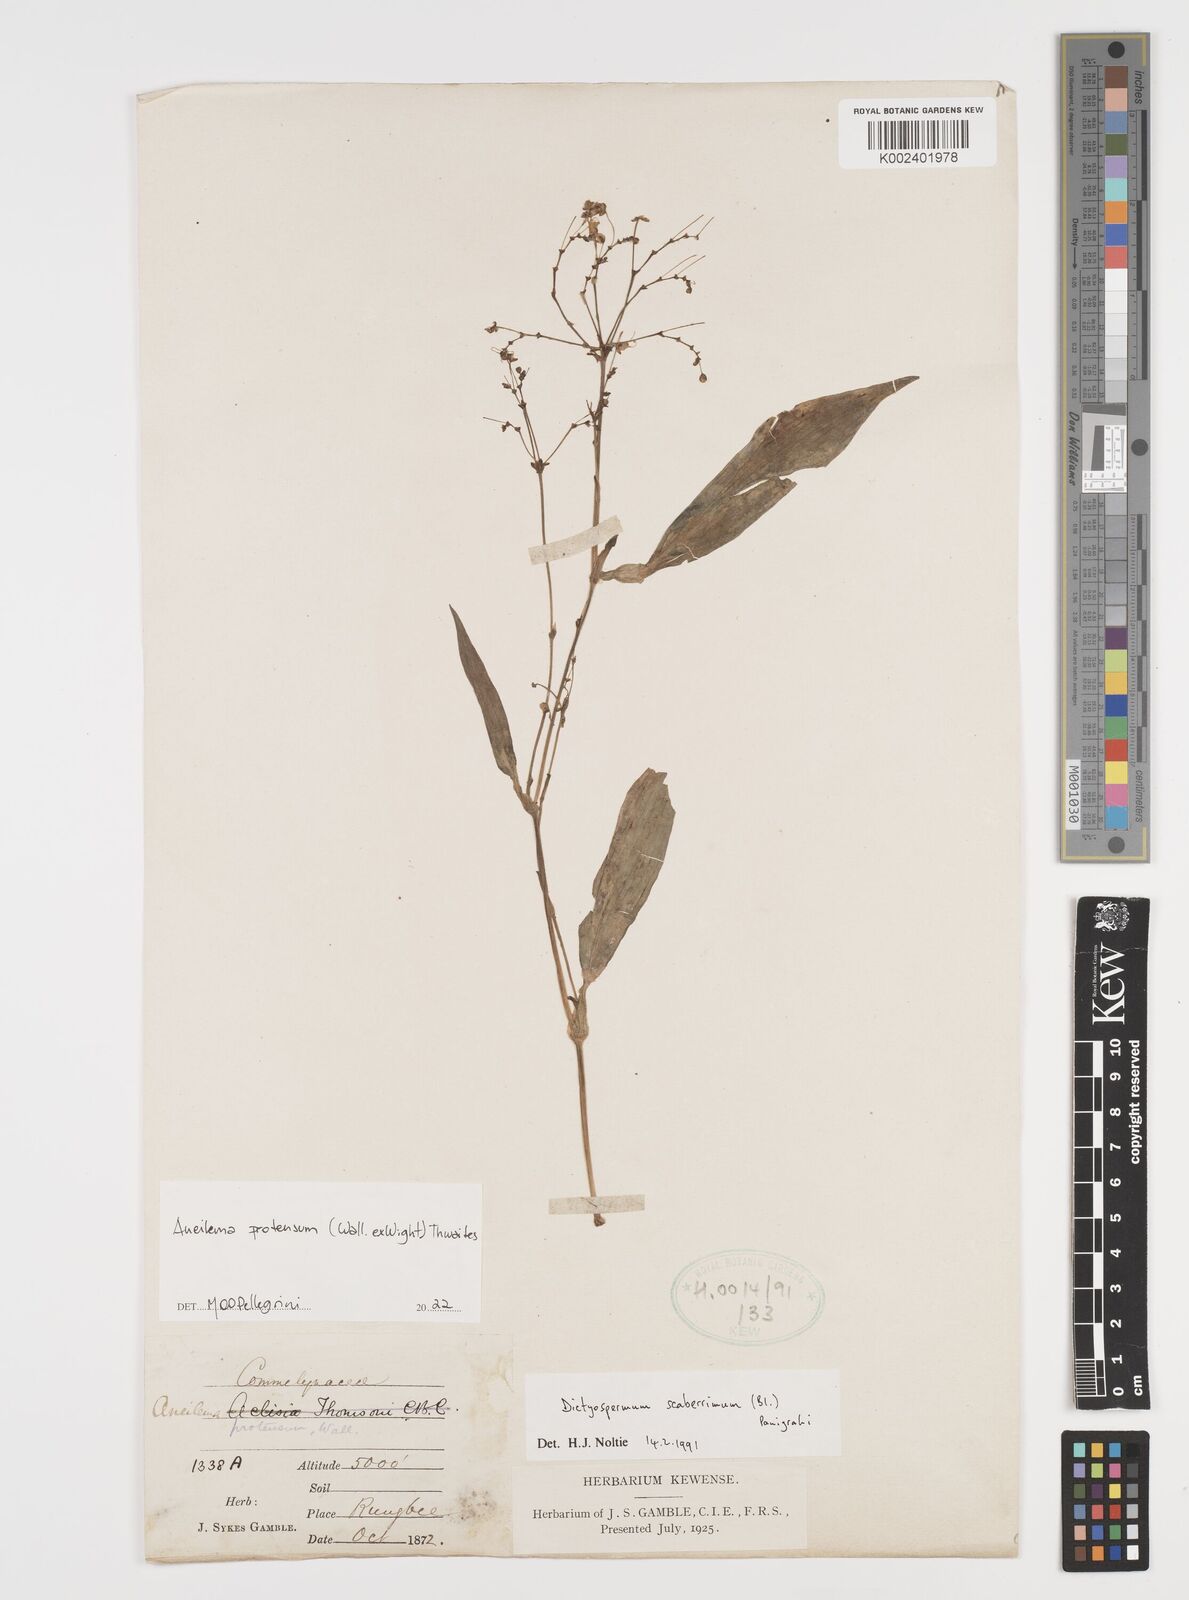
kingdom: Plantae
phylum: Tracheophyta
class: Liliopsida
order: Commelinales
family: Commelinaceae
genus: Rhopalephora
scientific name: Rhopalephora
